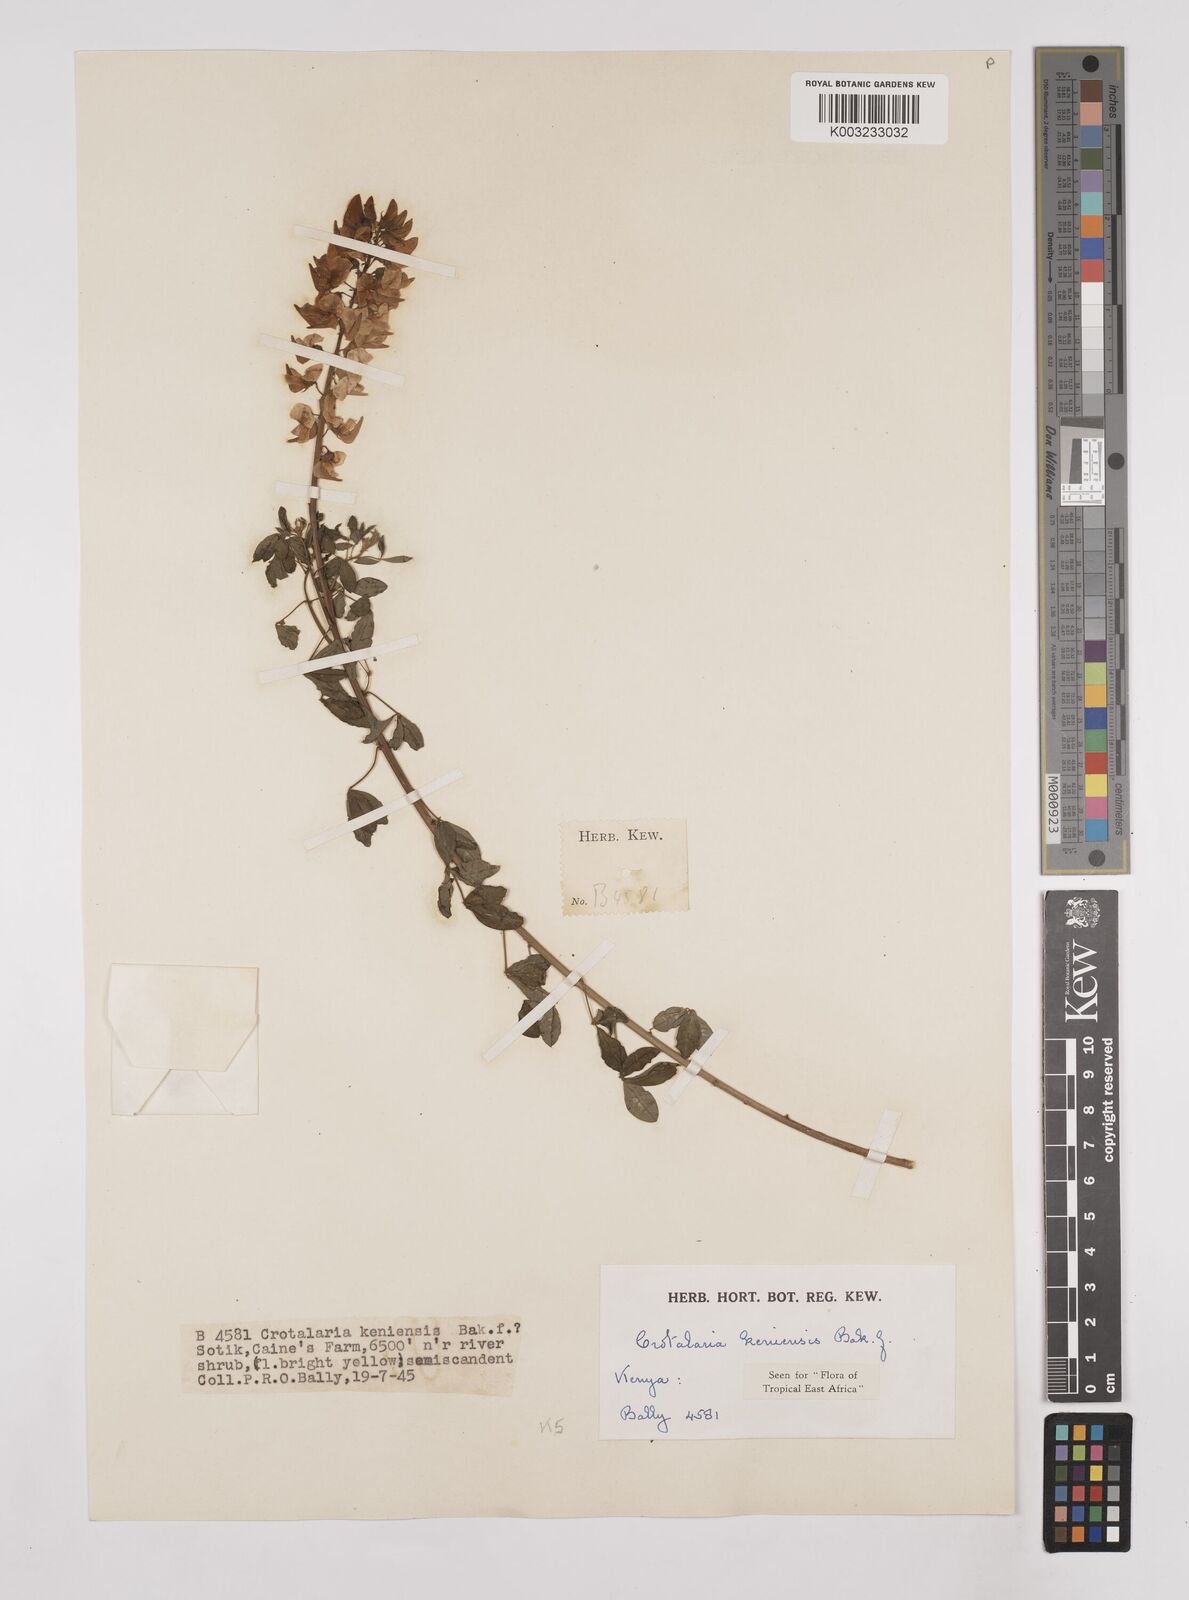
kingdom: Plantae
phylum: Tracheophyta
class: Magnoliopsida
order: Fabales
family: Fabaceae
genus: Crotalaria
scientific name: Crotalaria keniensis
